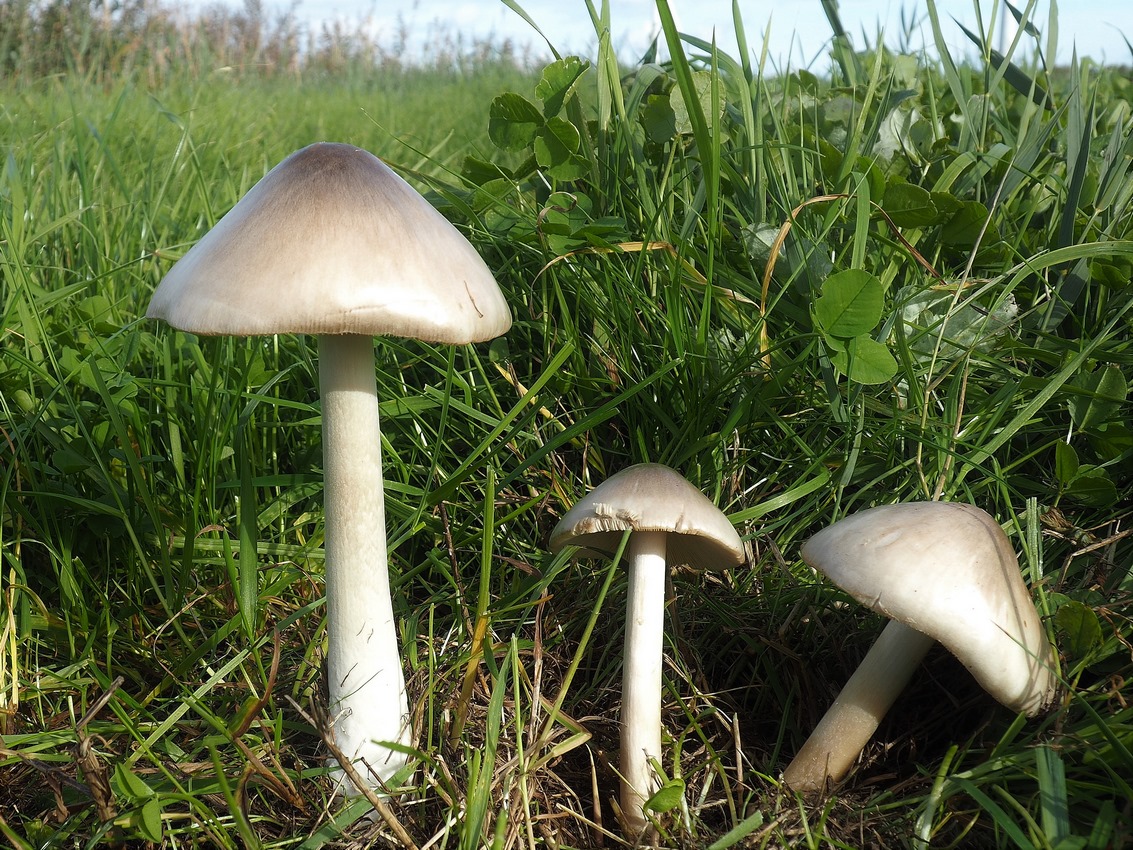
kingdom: Fungi
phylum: Basidiomycota
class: Agaricomycetes
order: Agaricales
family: Pluteaceae
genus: Volvopluteus
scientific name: Volvopluteus gloiocephalus
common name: høj posesvamp
